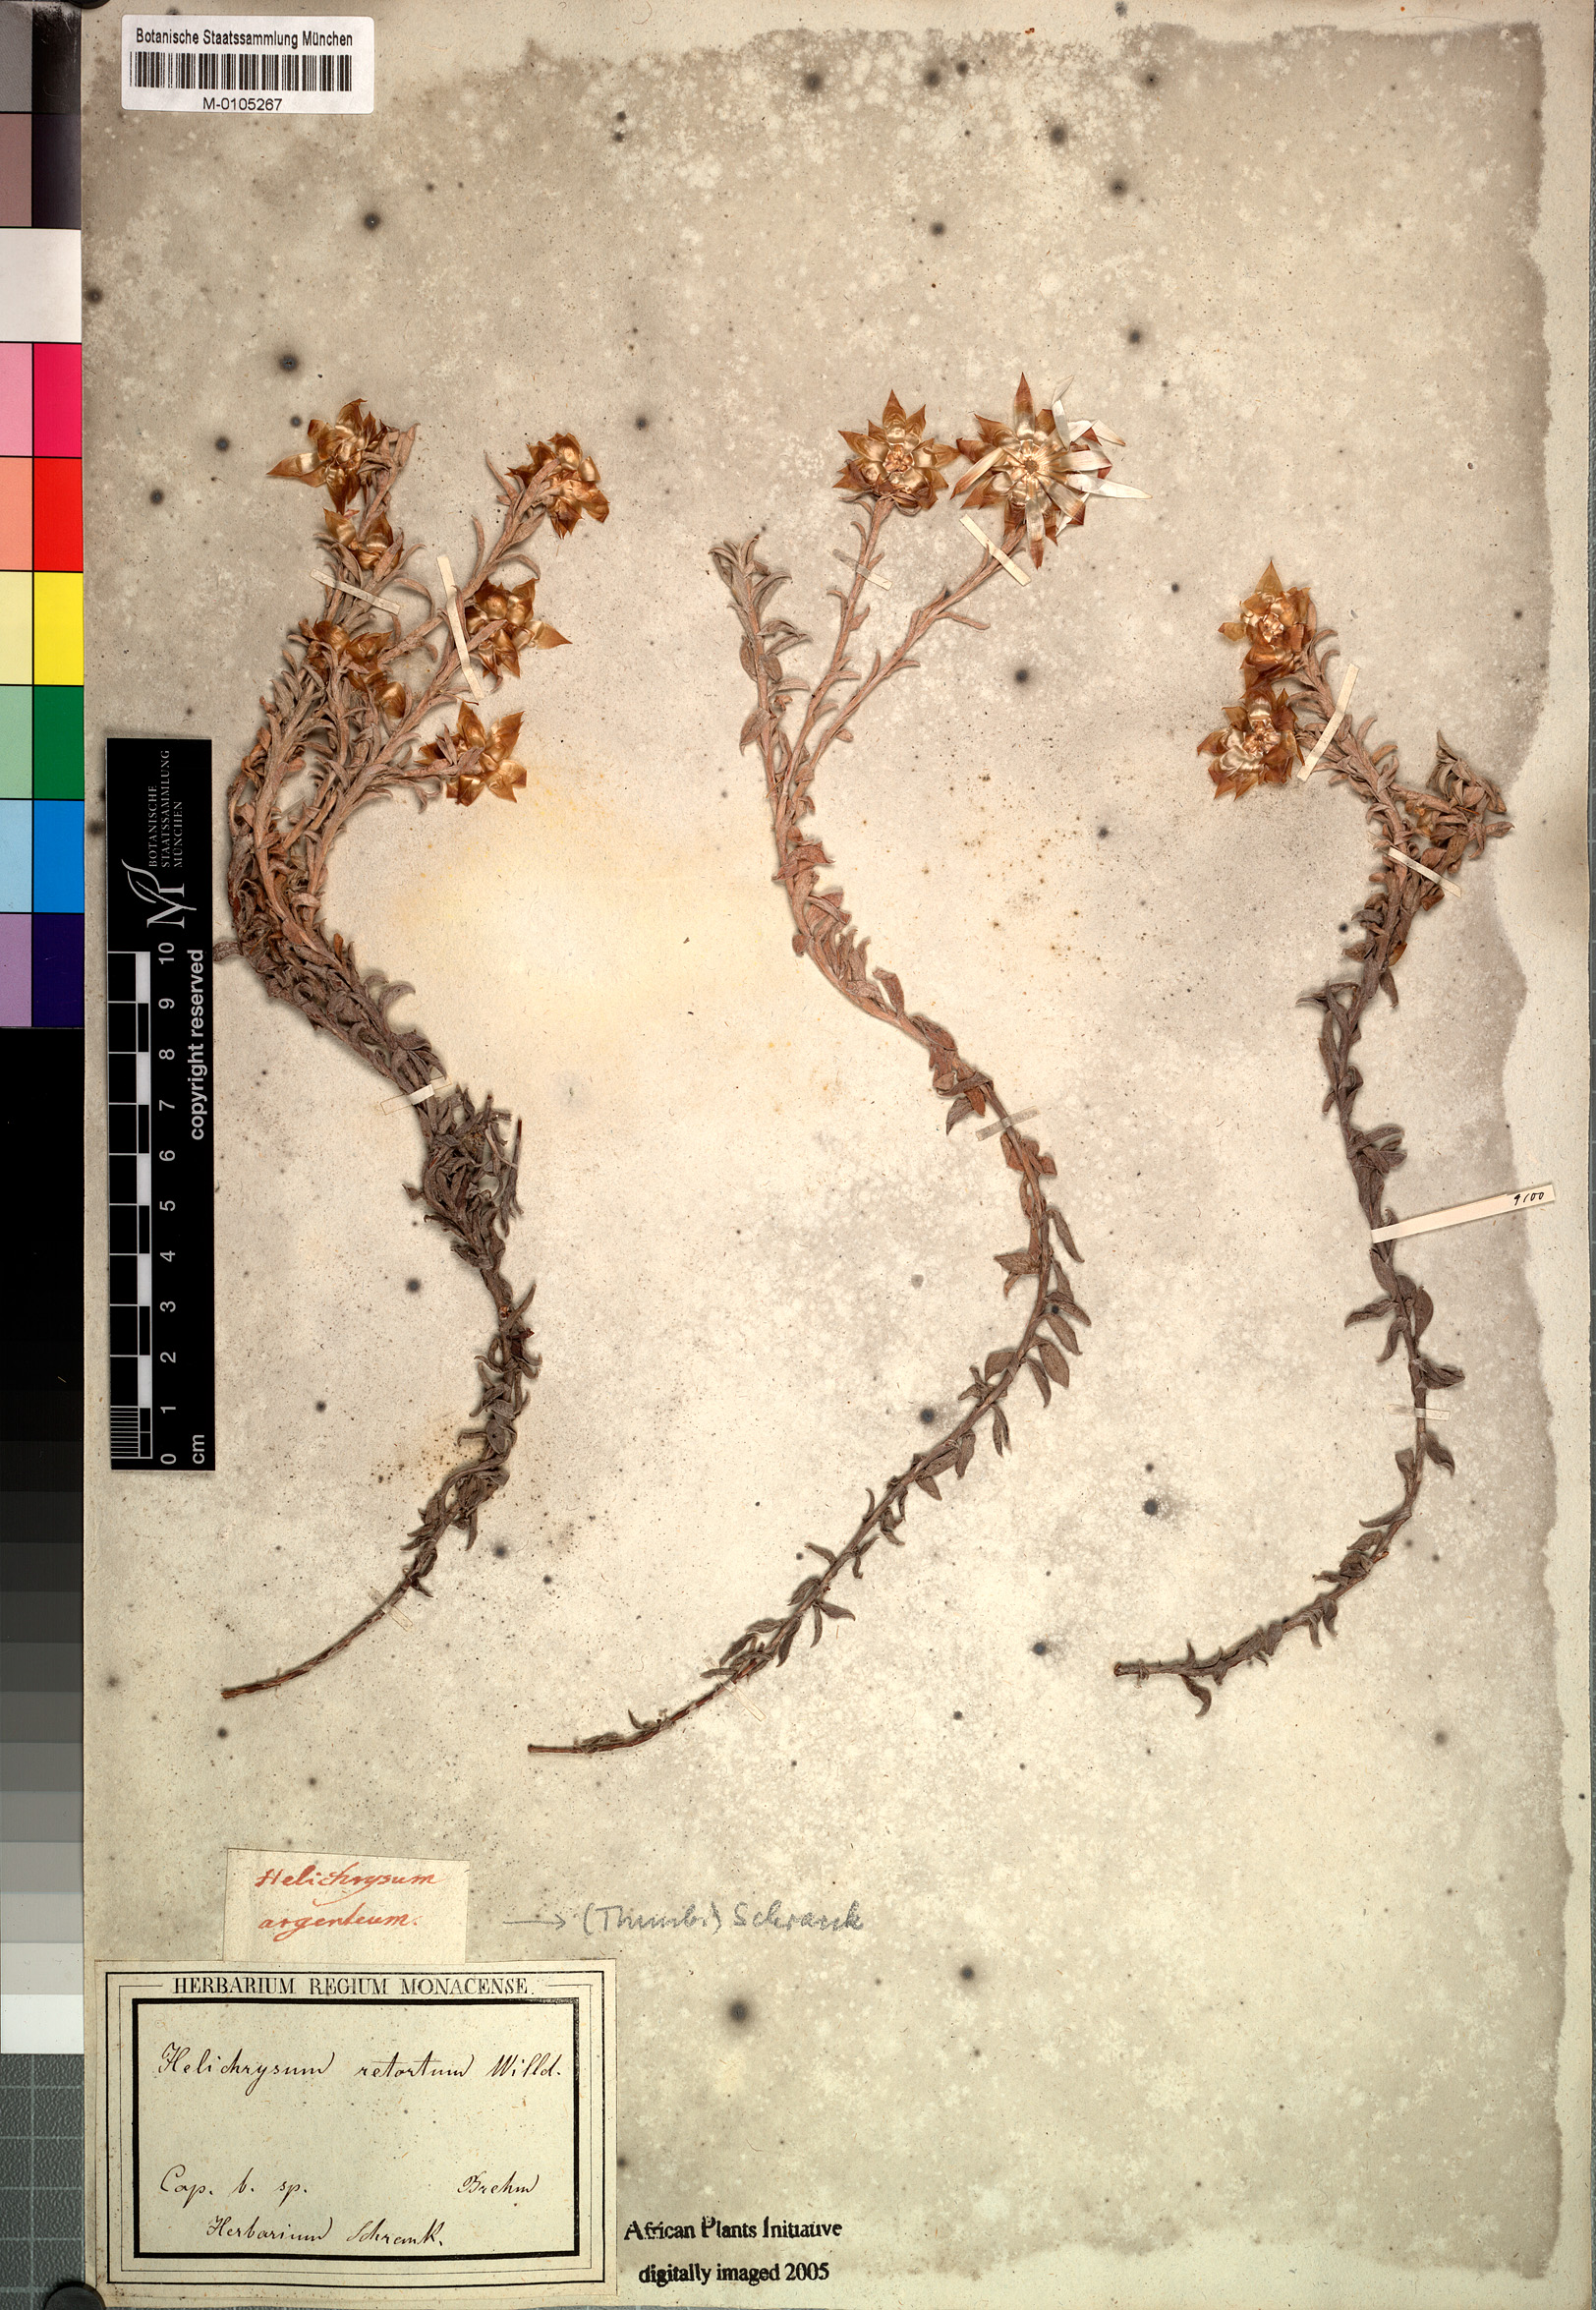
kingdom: Plantae
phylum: Tracheophyta
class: Magnoliopsida
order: Asterales
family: Asteraceae
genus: Helichrysum
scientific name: Helichrysum retortum
